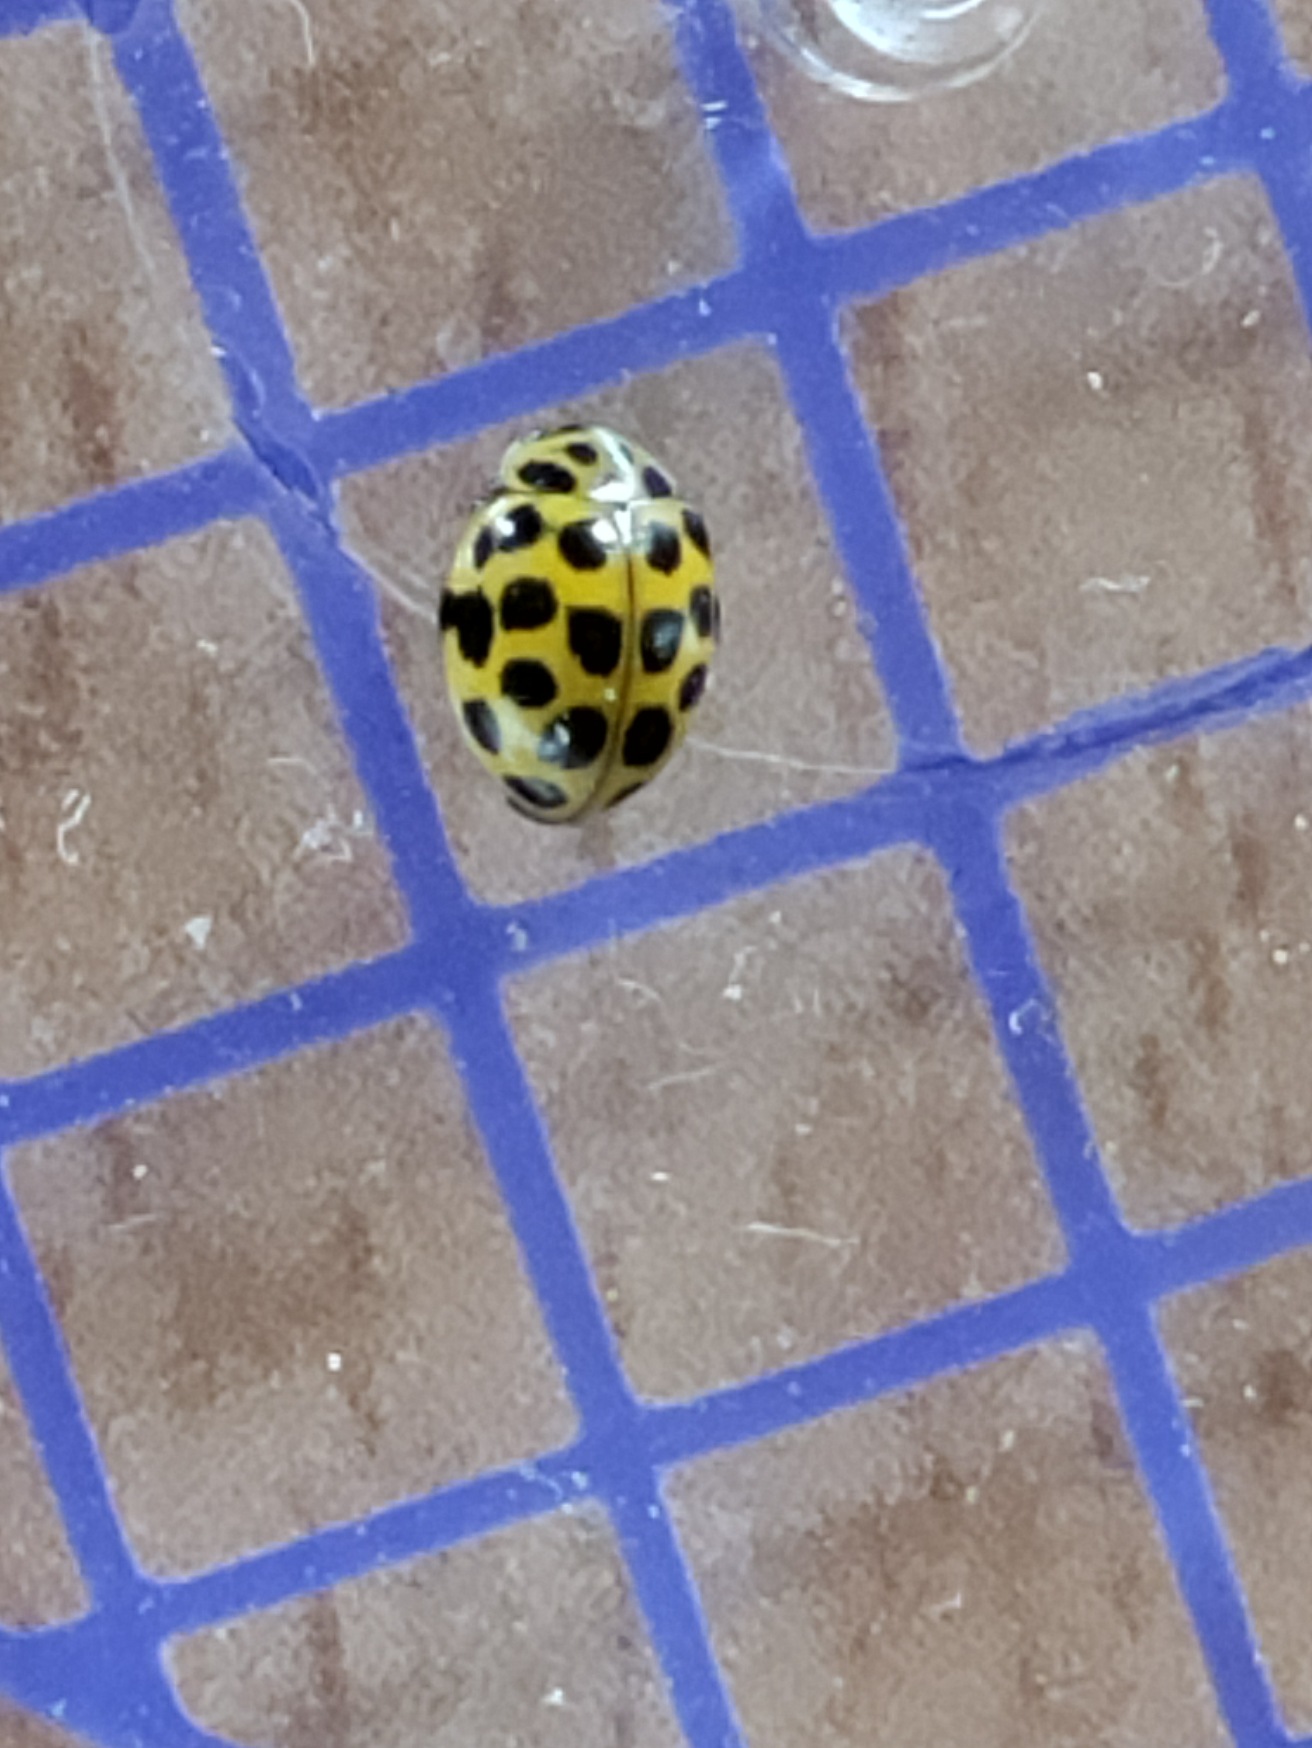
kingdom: Animalia
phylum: Arthropoda
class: Insecta
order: Coleoptera
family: Coccinellidae
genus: Psyllobora
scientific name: Psyllobora vigintiduopunctata
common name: Toogtyveplettet mariehøne
